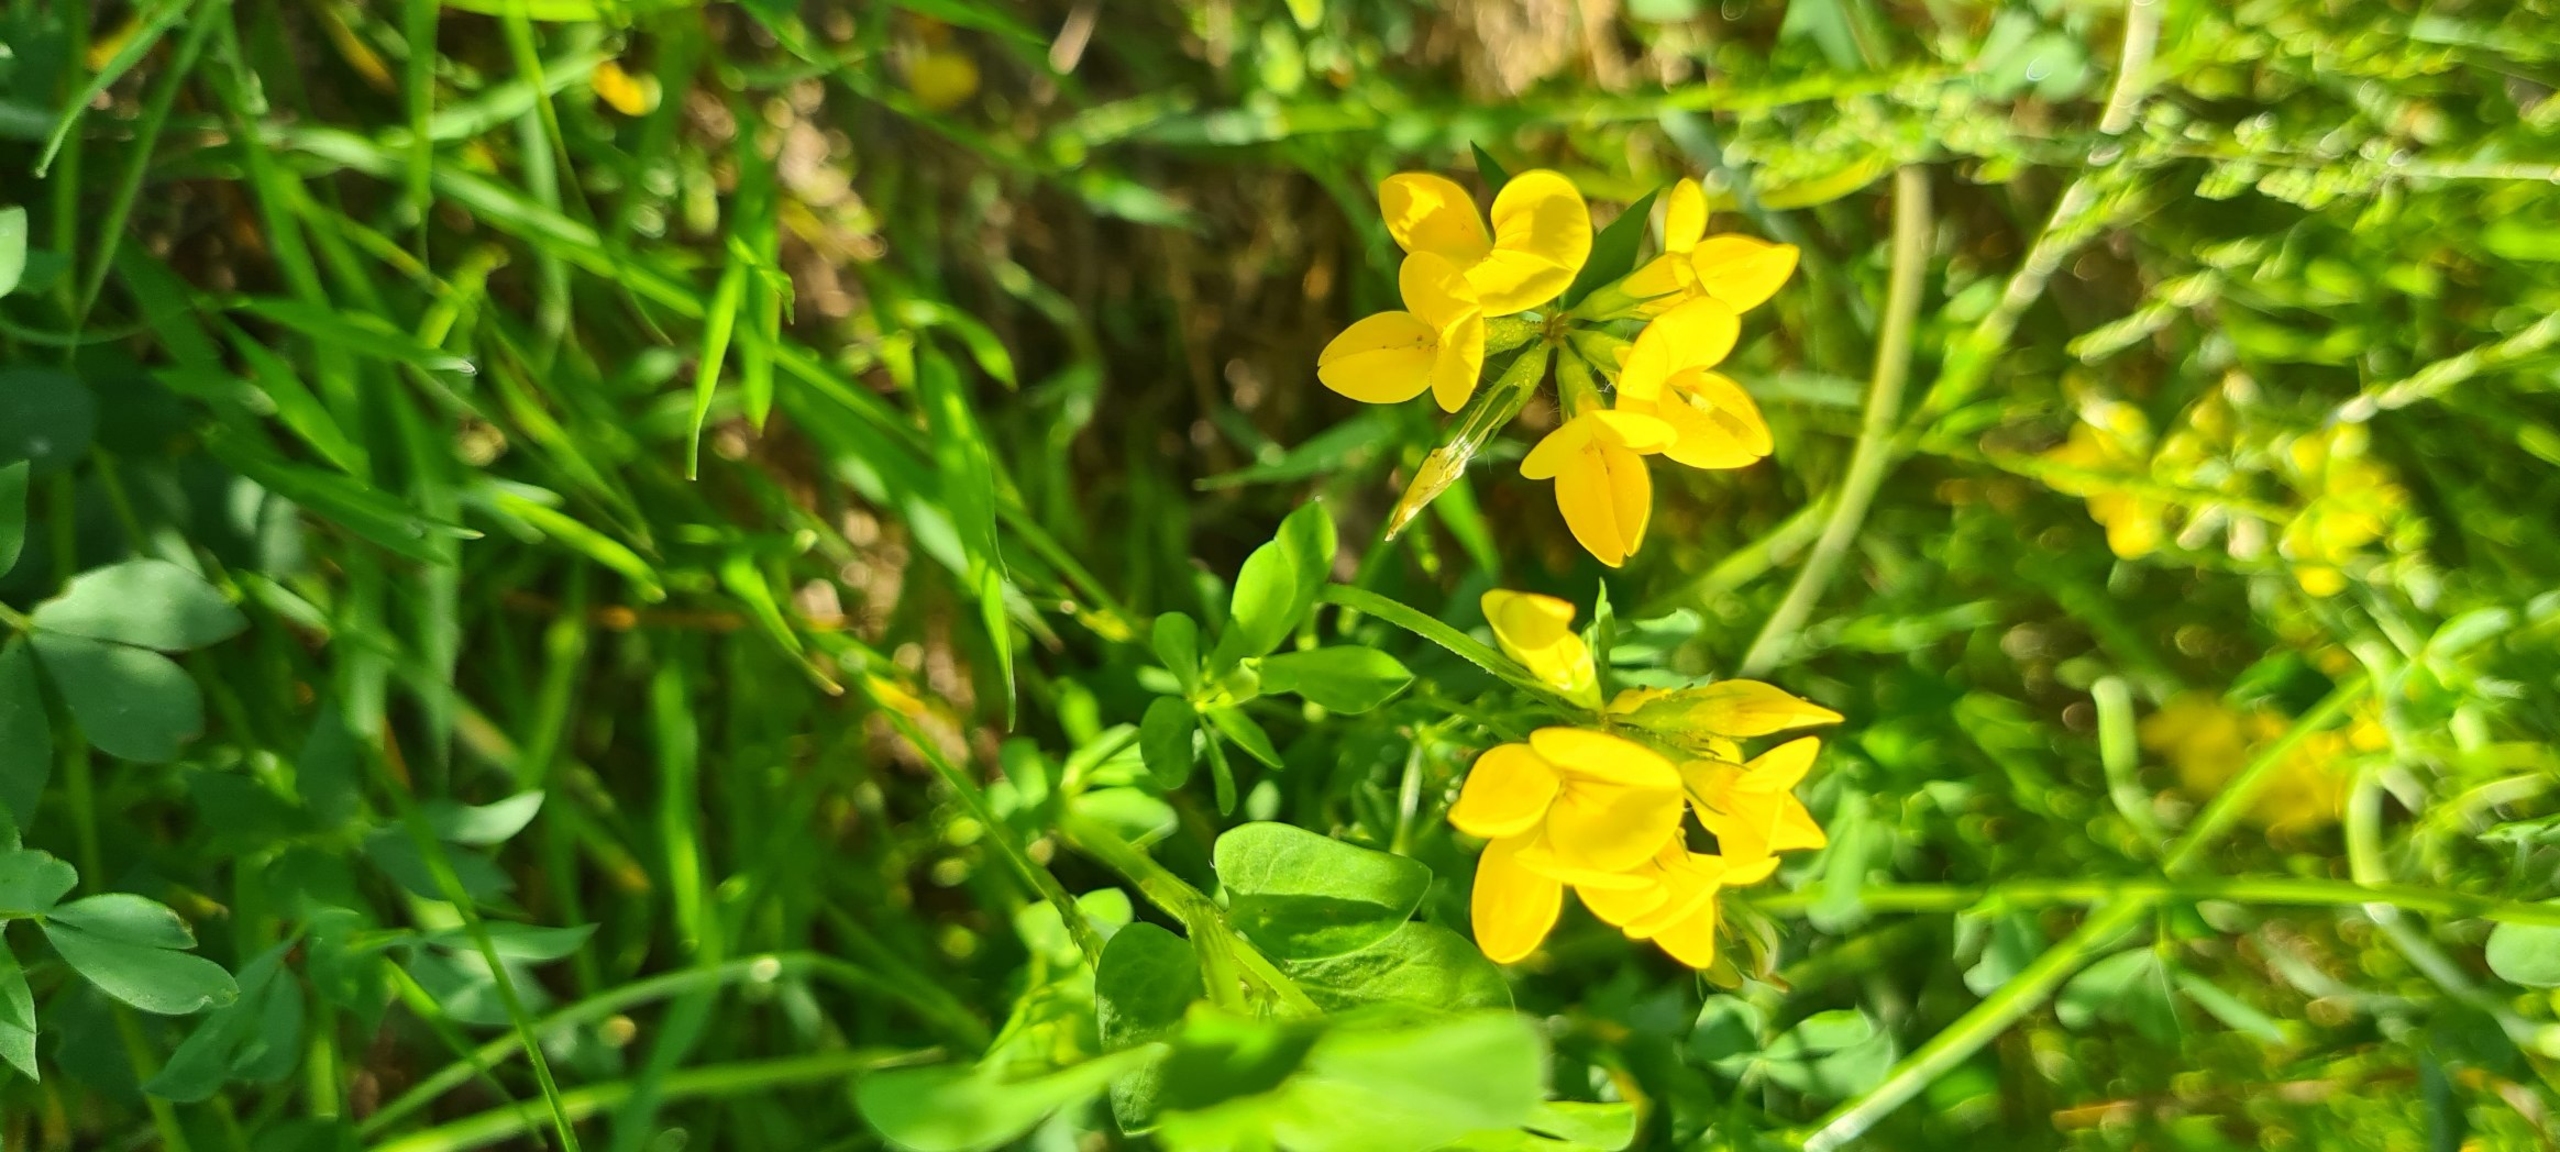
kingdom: Plantae
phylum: Tracheophyta
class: Magnoliopsida
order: Fabales
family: Fabaceae
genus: Lotus
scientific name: Lotus corniculatus
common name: Almindelig kællingetand
